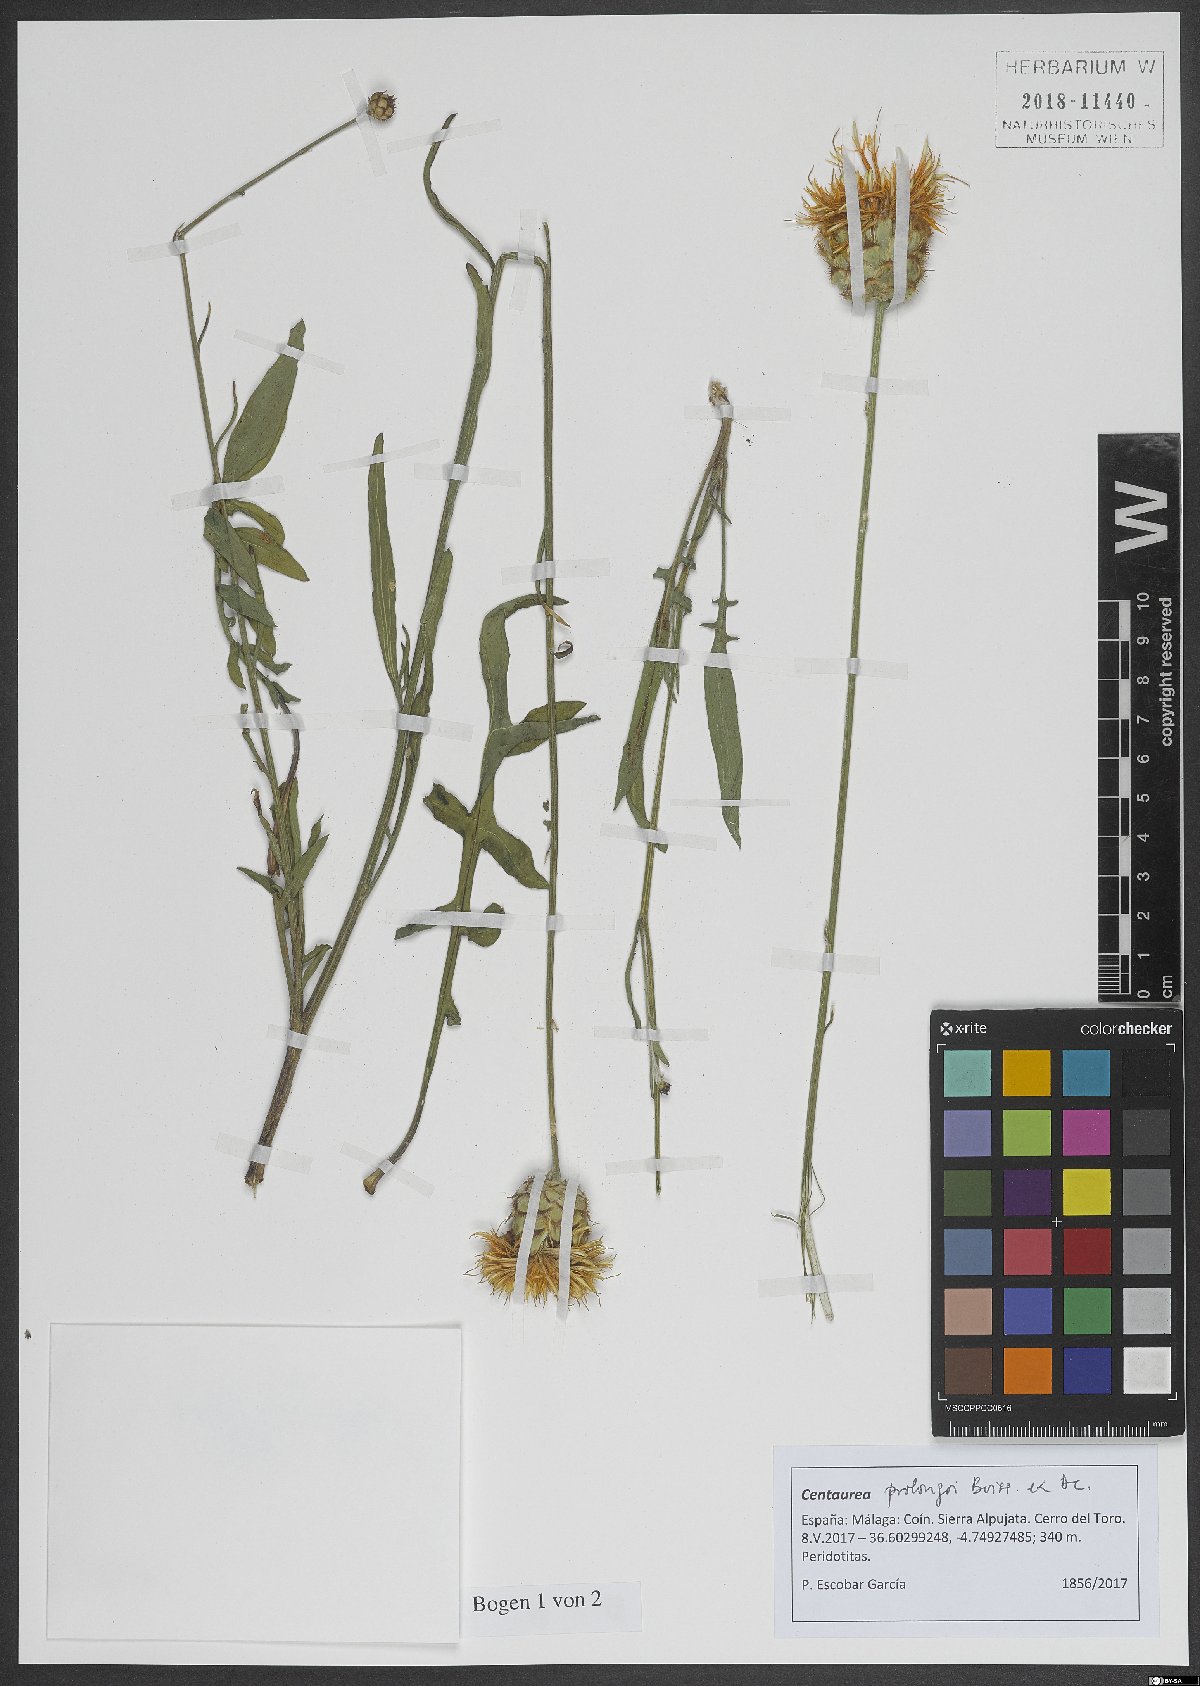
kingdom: Plantae
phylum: Tracheophyta
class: Magnoliopsida
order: Asterales
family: Asteraceae
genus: Centaurea
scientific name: Centaurea prolongi
